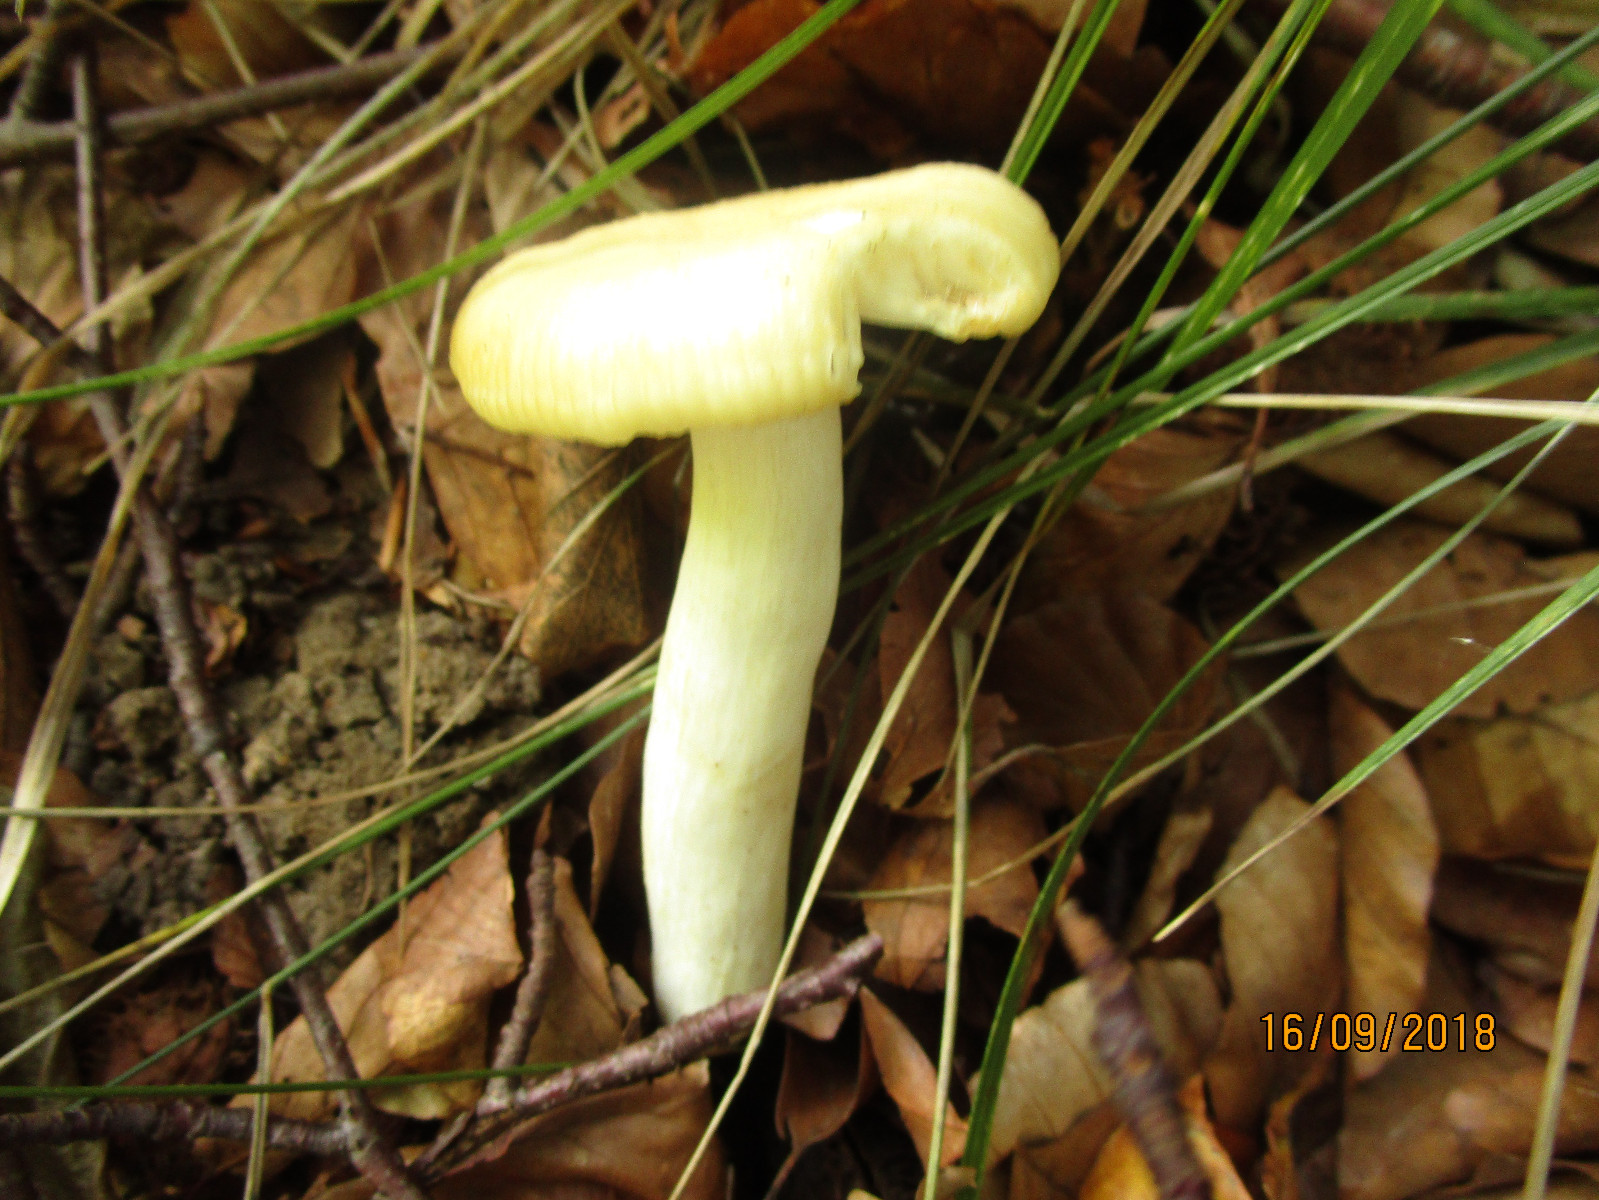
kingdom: Fungi
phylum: Basidiomycota
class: Agaricomycetes
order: Agaricales
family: Hygrophoraceae
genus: Hygrophorus
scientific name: Hygrophorus
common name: sneglehat
